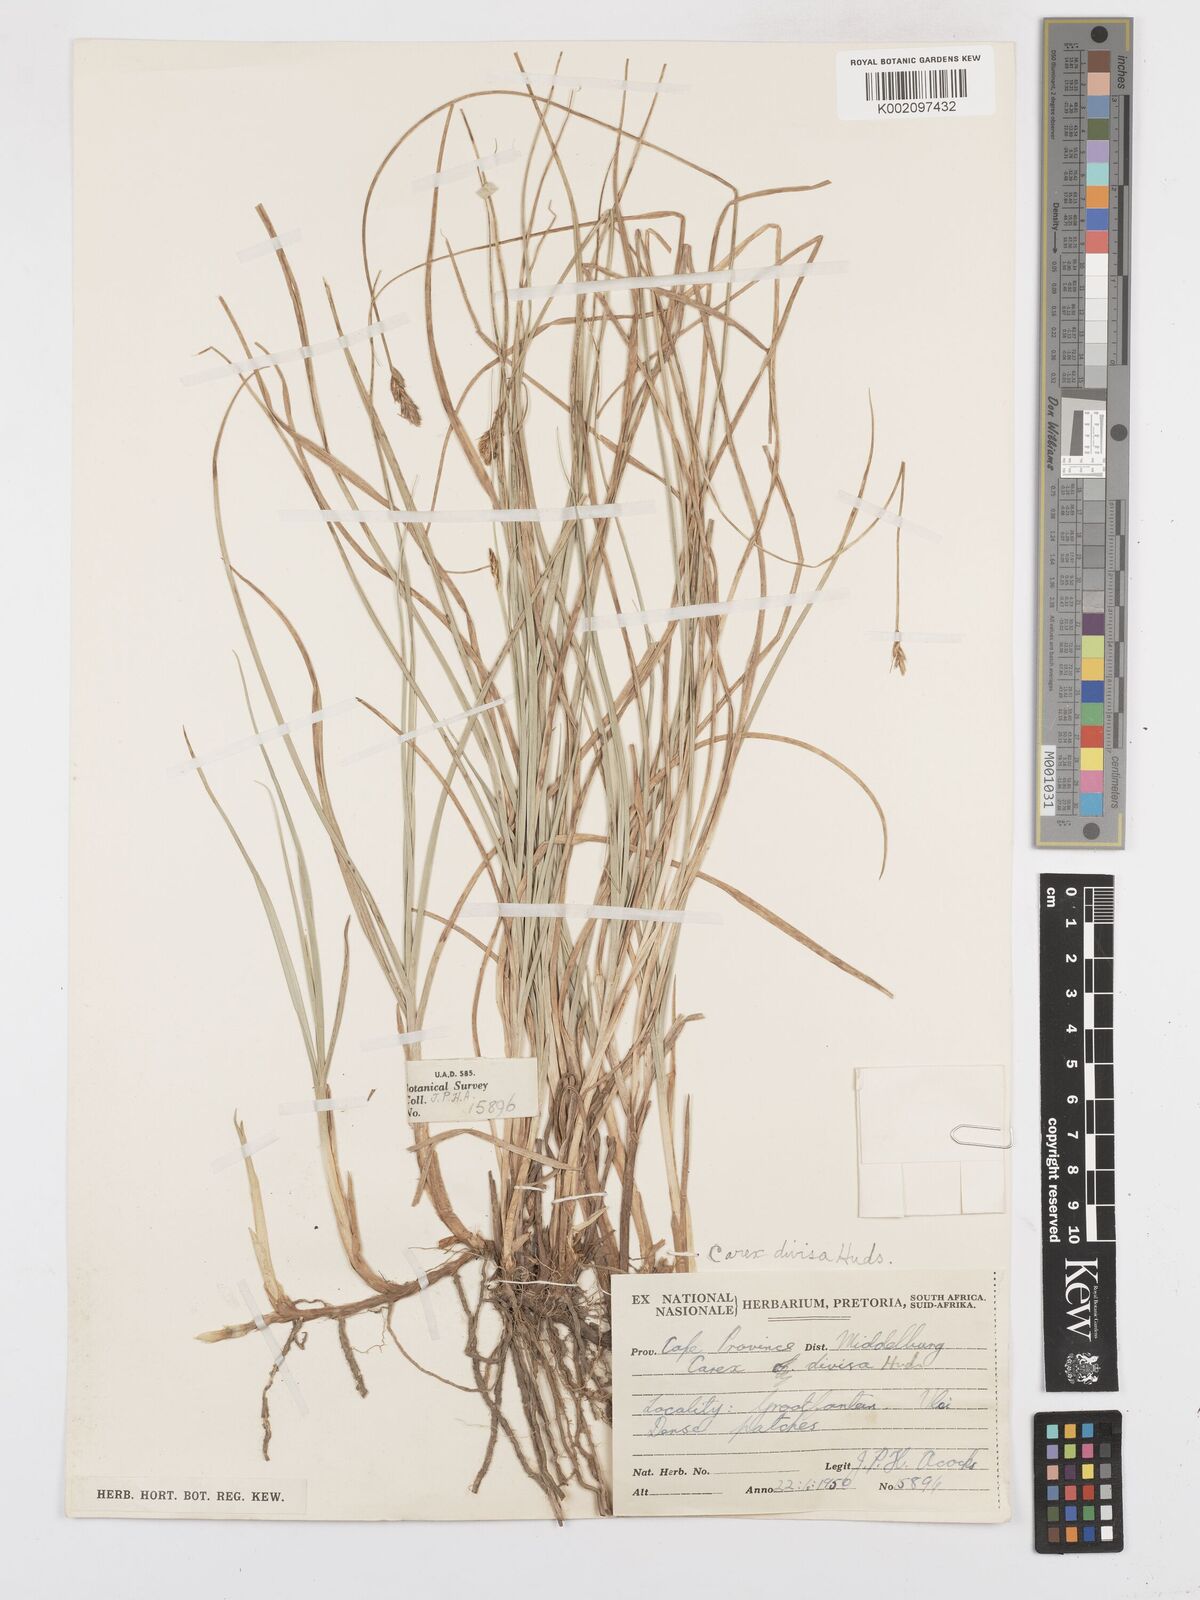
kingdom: Plantae
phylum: Tracheophyta
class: Liliopsida
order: Poales
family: Cyperaceae
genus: Carex
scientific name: Carex divisa
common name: Divided sedge
